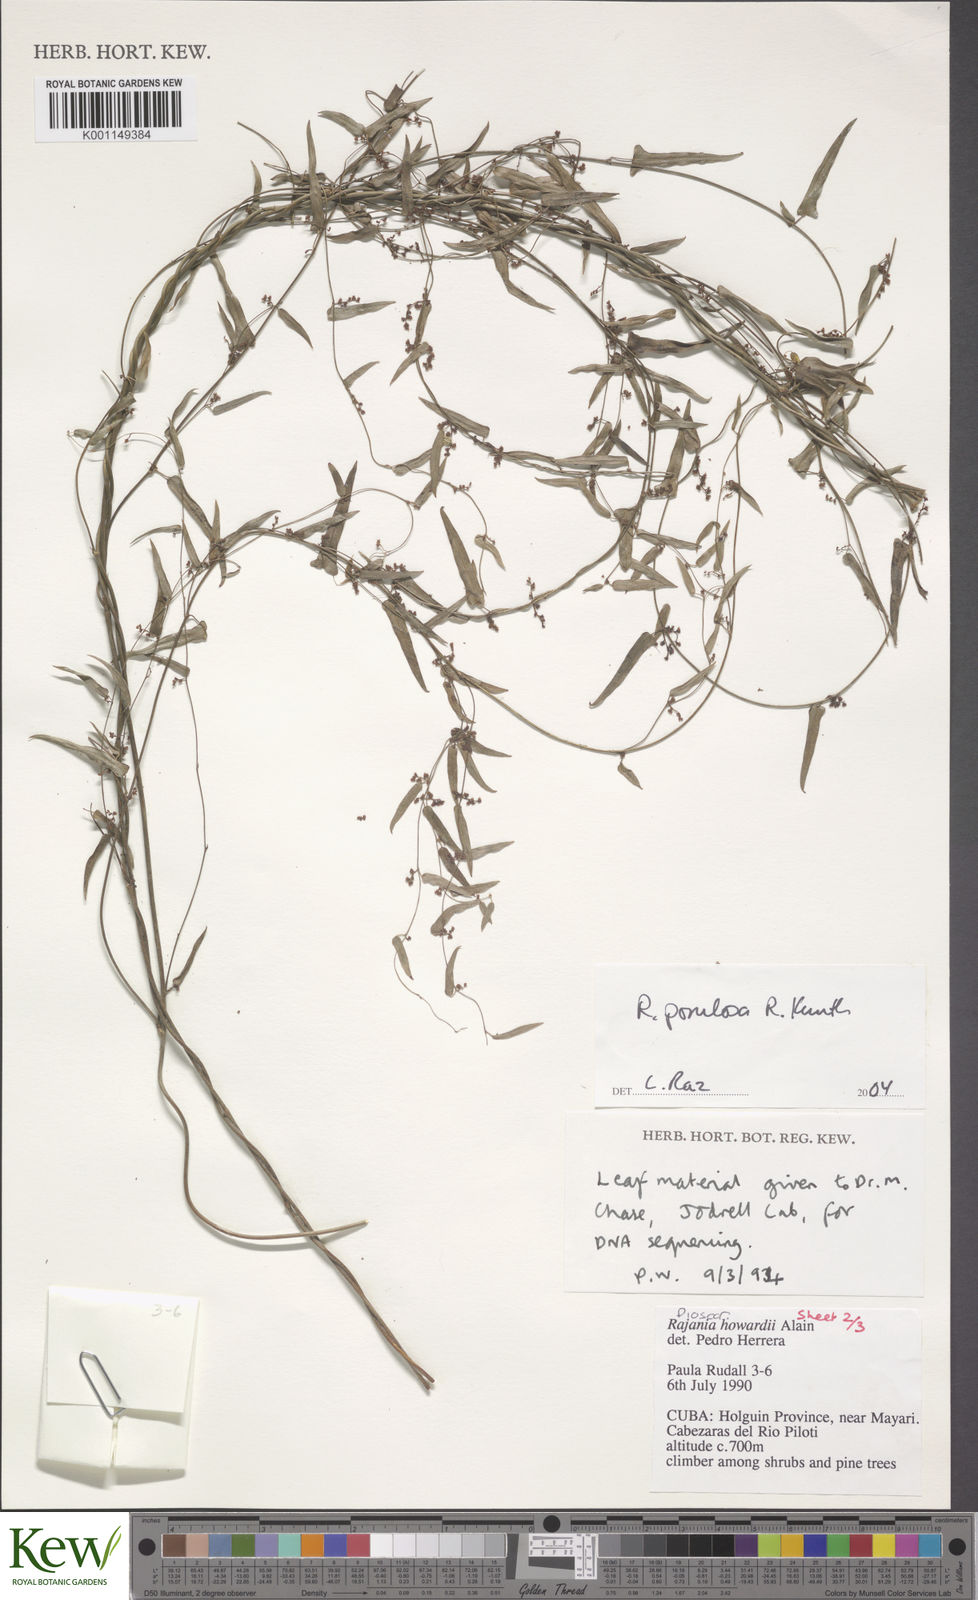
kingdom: Plantae
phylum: Tracheophyta
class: Liliopsida
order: Dioscoreales
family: Dioscoreaceae
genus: Dioscorea
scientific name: Dioscorea
